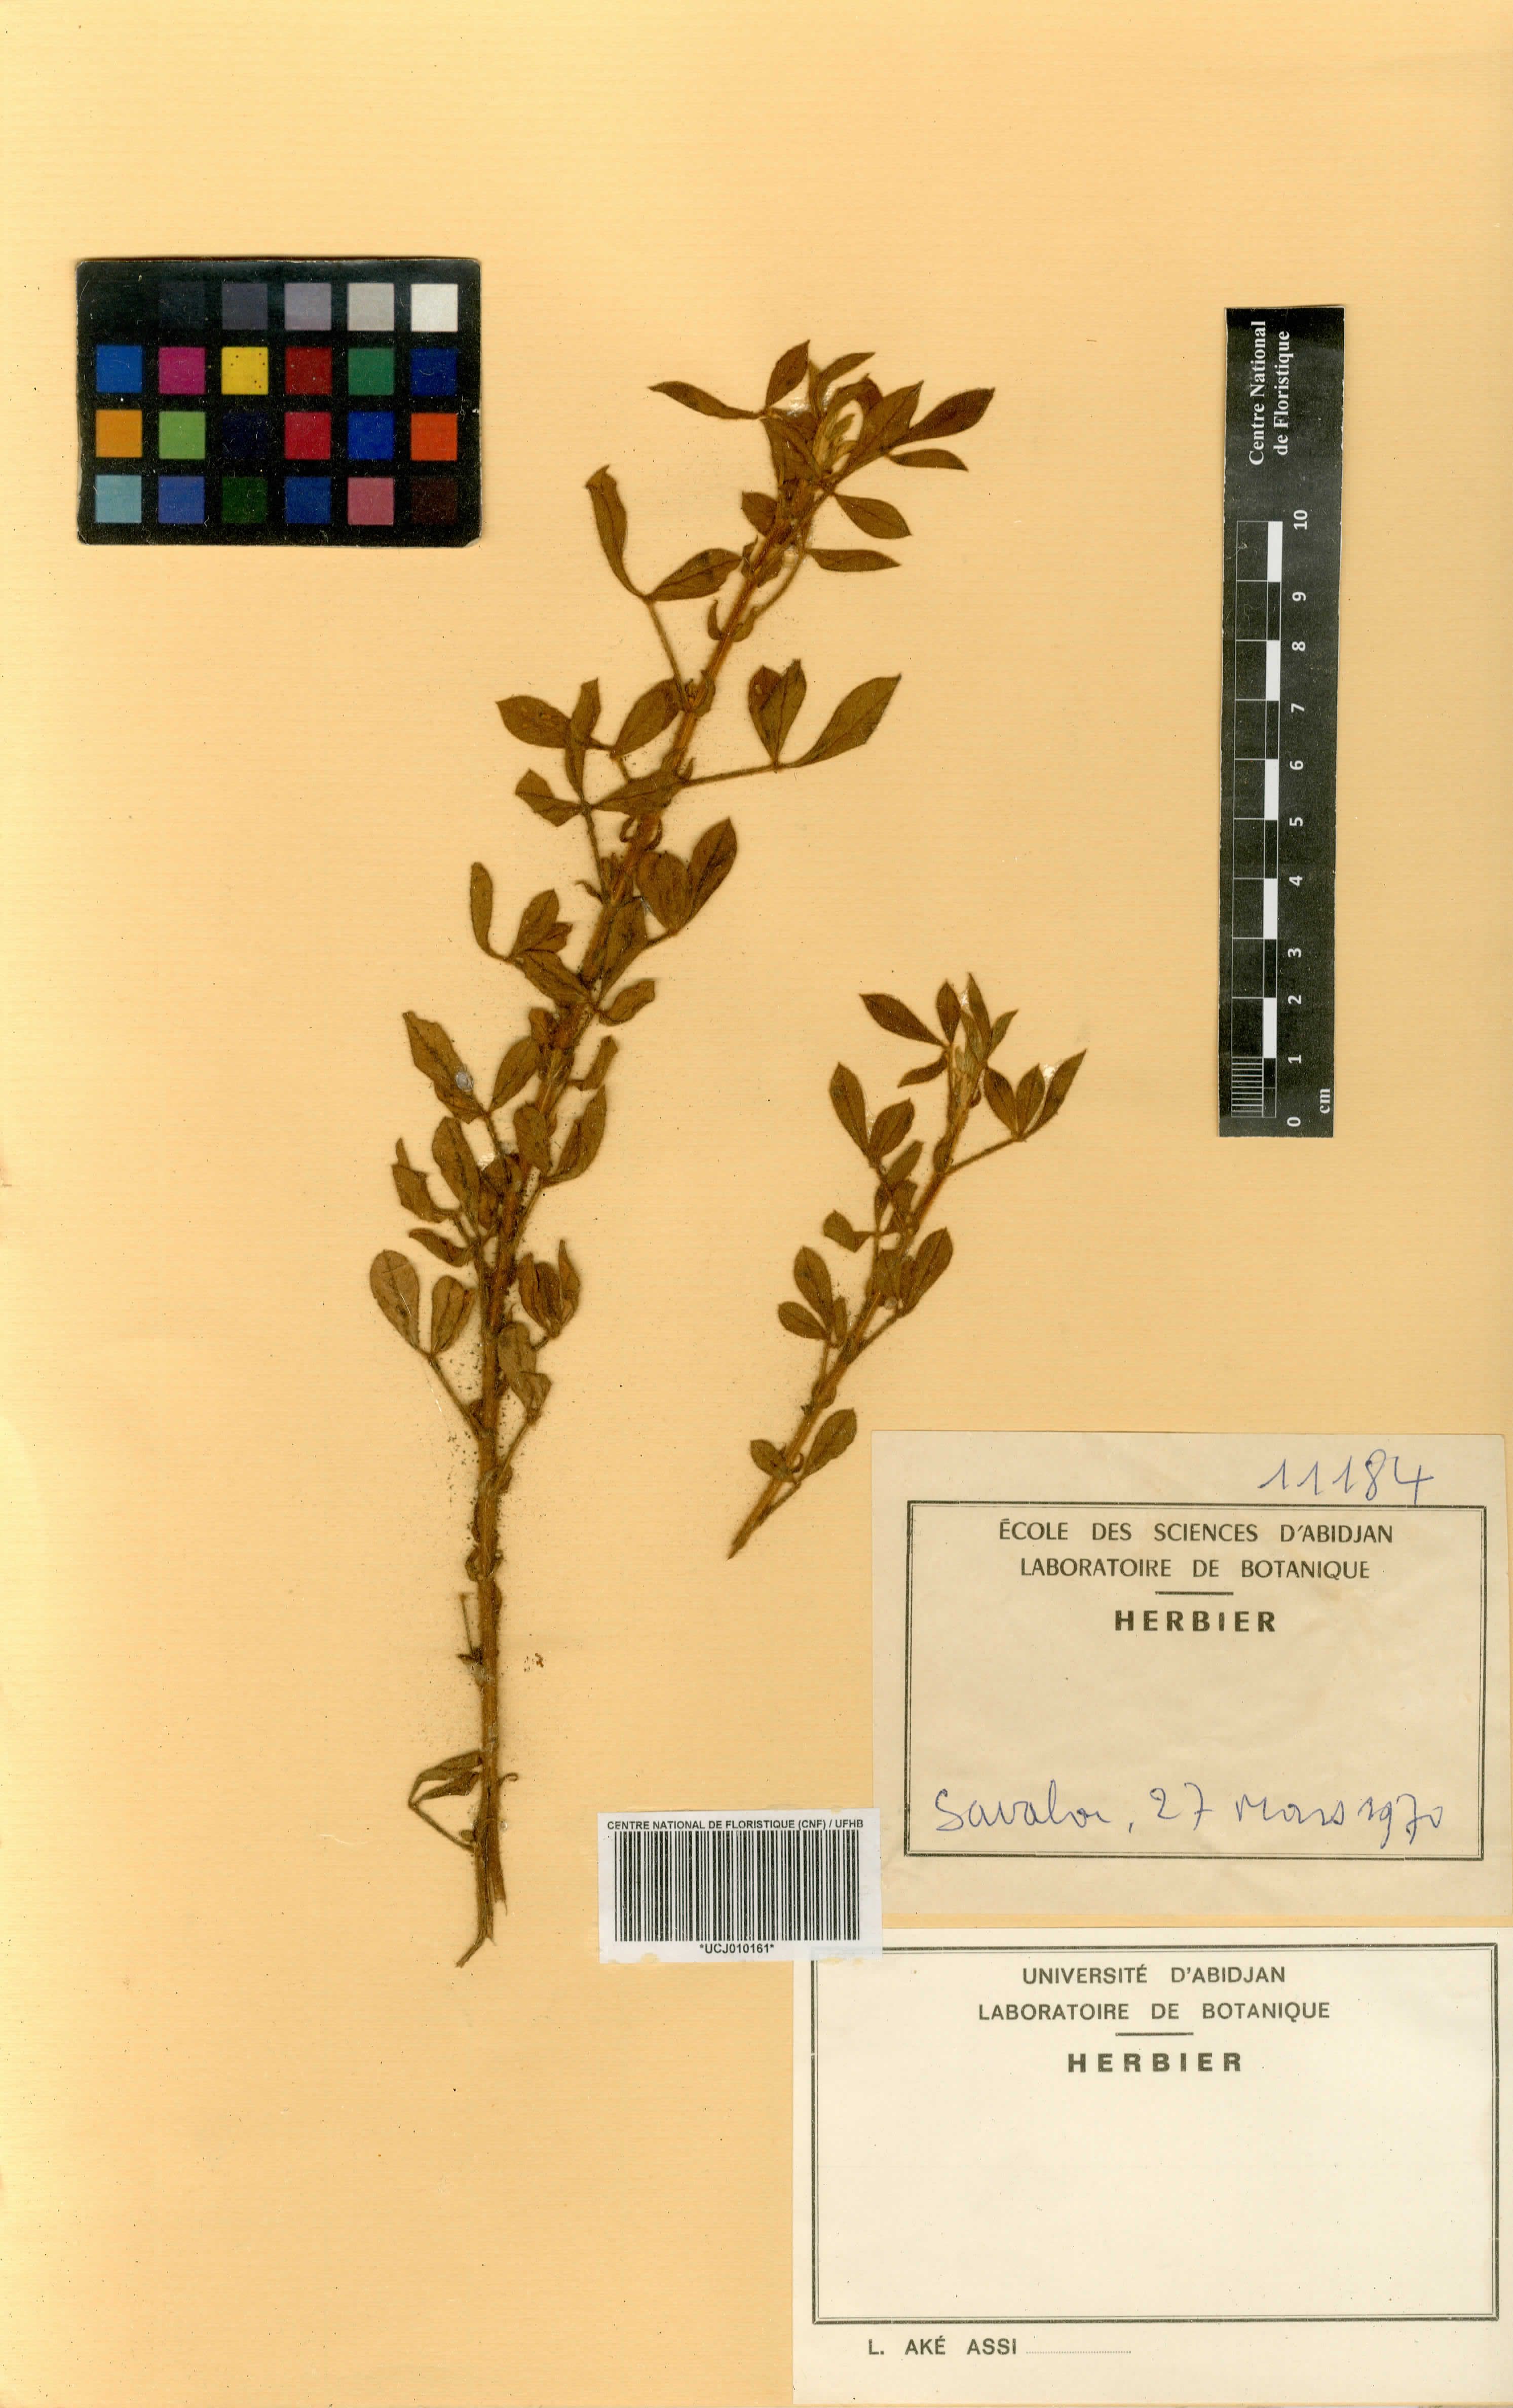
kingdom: Plantae
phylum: Tracheophyta
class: Magnoliopsida
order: Fabales
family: Fabaceae
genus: Crotalaria
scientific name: Crotalaria
